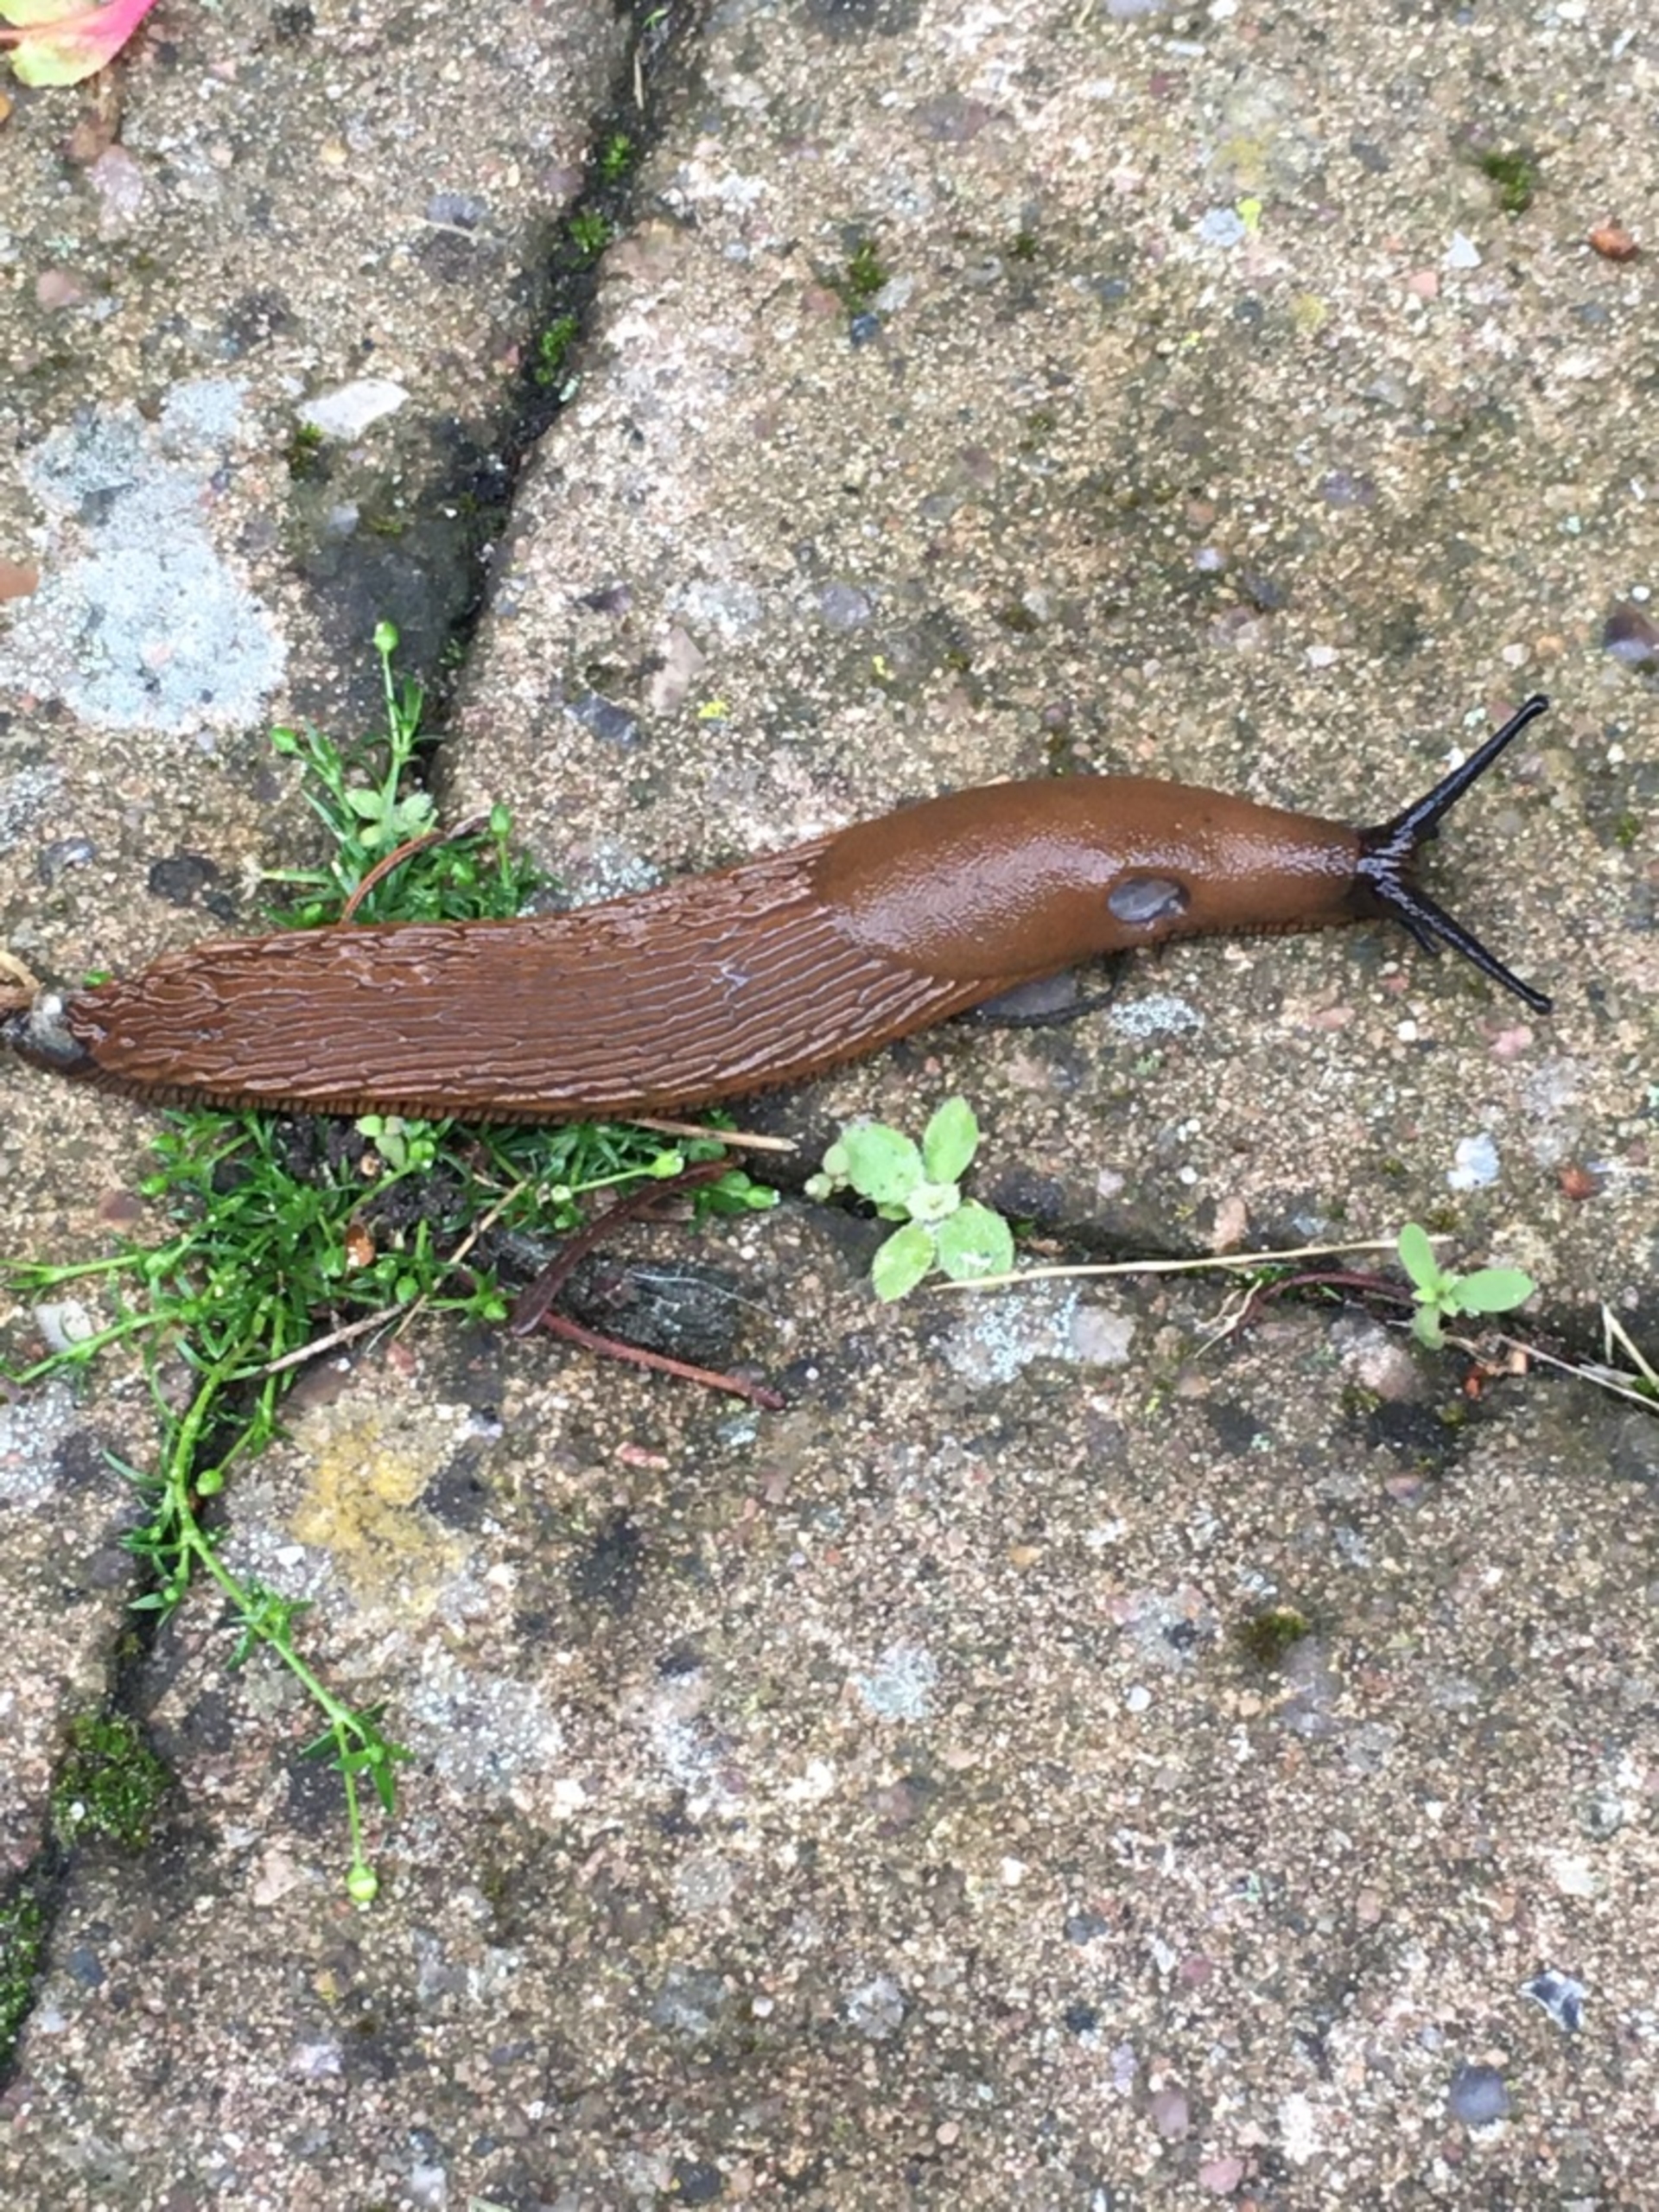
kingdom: Animalia
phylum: Mollusca
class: Gastropoda
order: Stylommatophora
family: Arionidae
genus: Arion
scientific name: Arion vulgaris
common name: Iberisk skovsnegl
